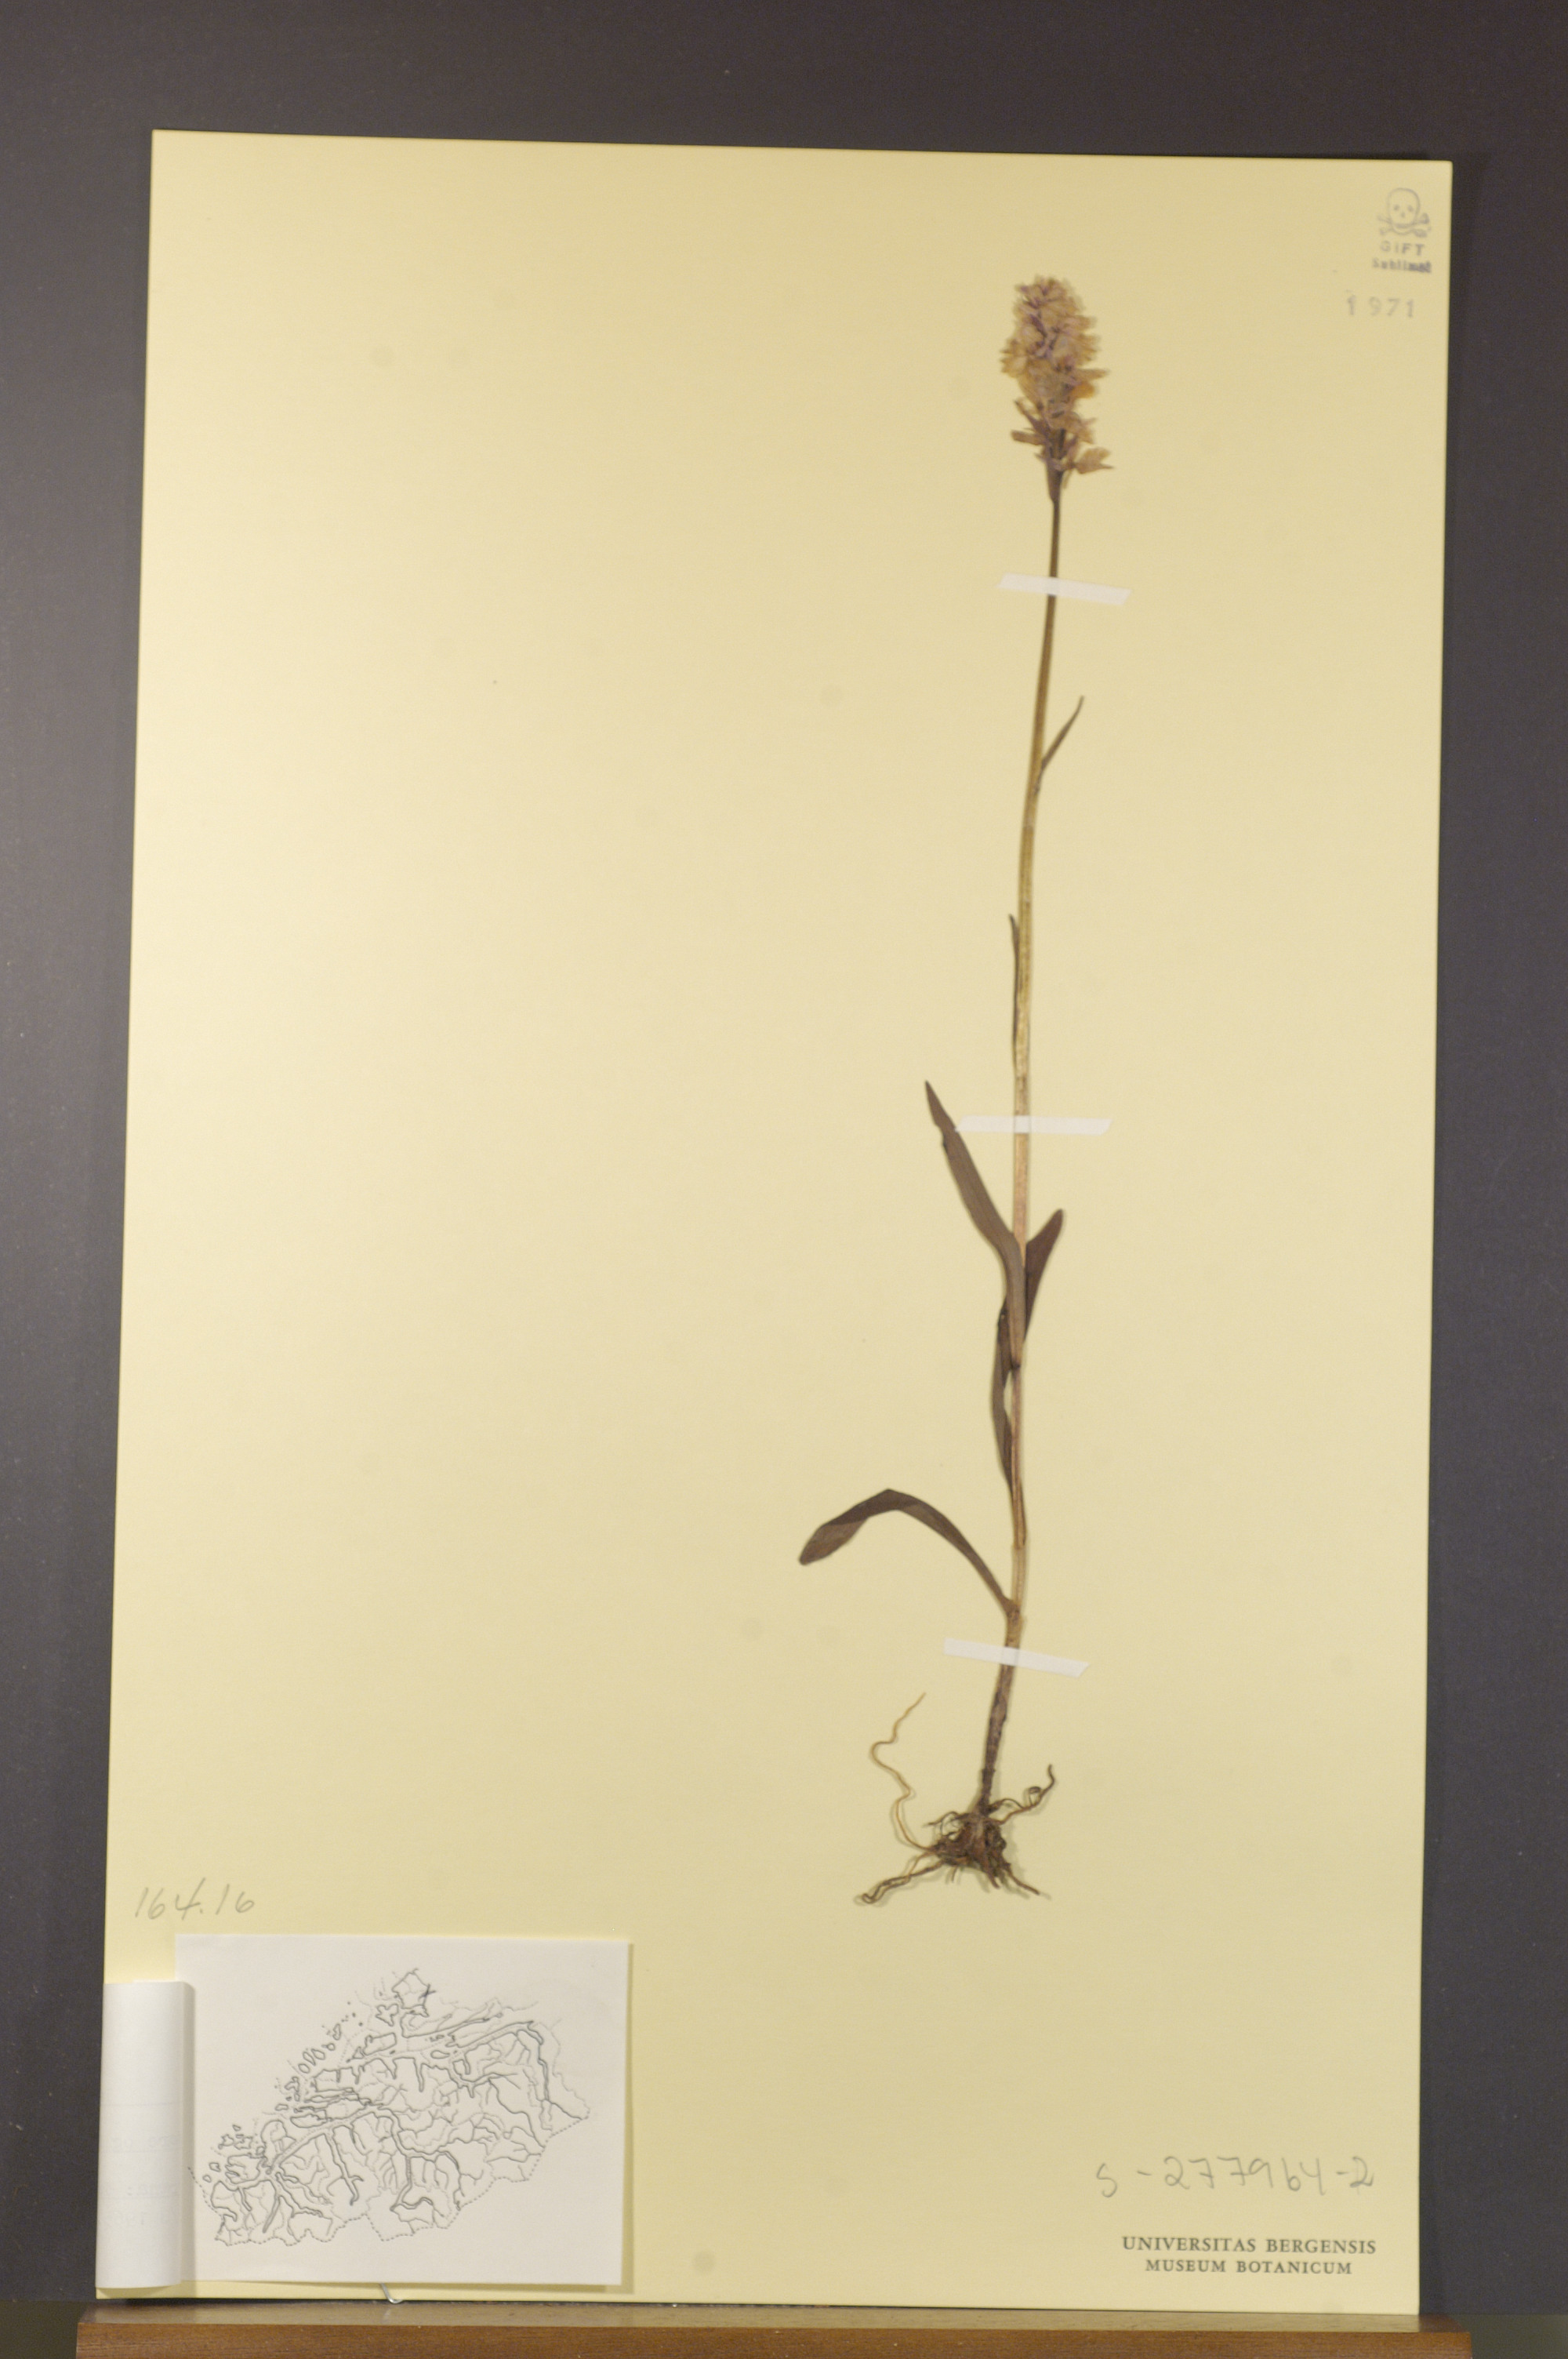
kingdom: Plantae
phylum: Tracheophyta
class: Liliopsida
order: Asparagales
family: Orchidaceae
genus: Dactylorhiza
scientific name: Dactylorhiza maculata
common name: Heath spotted-orchid
